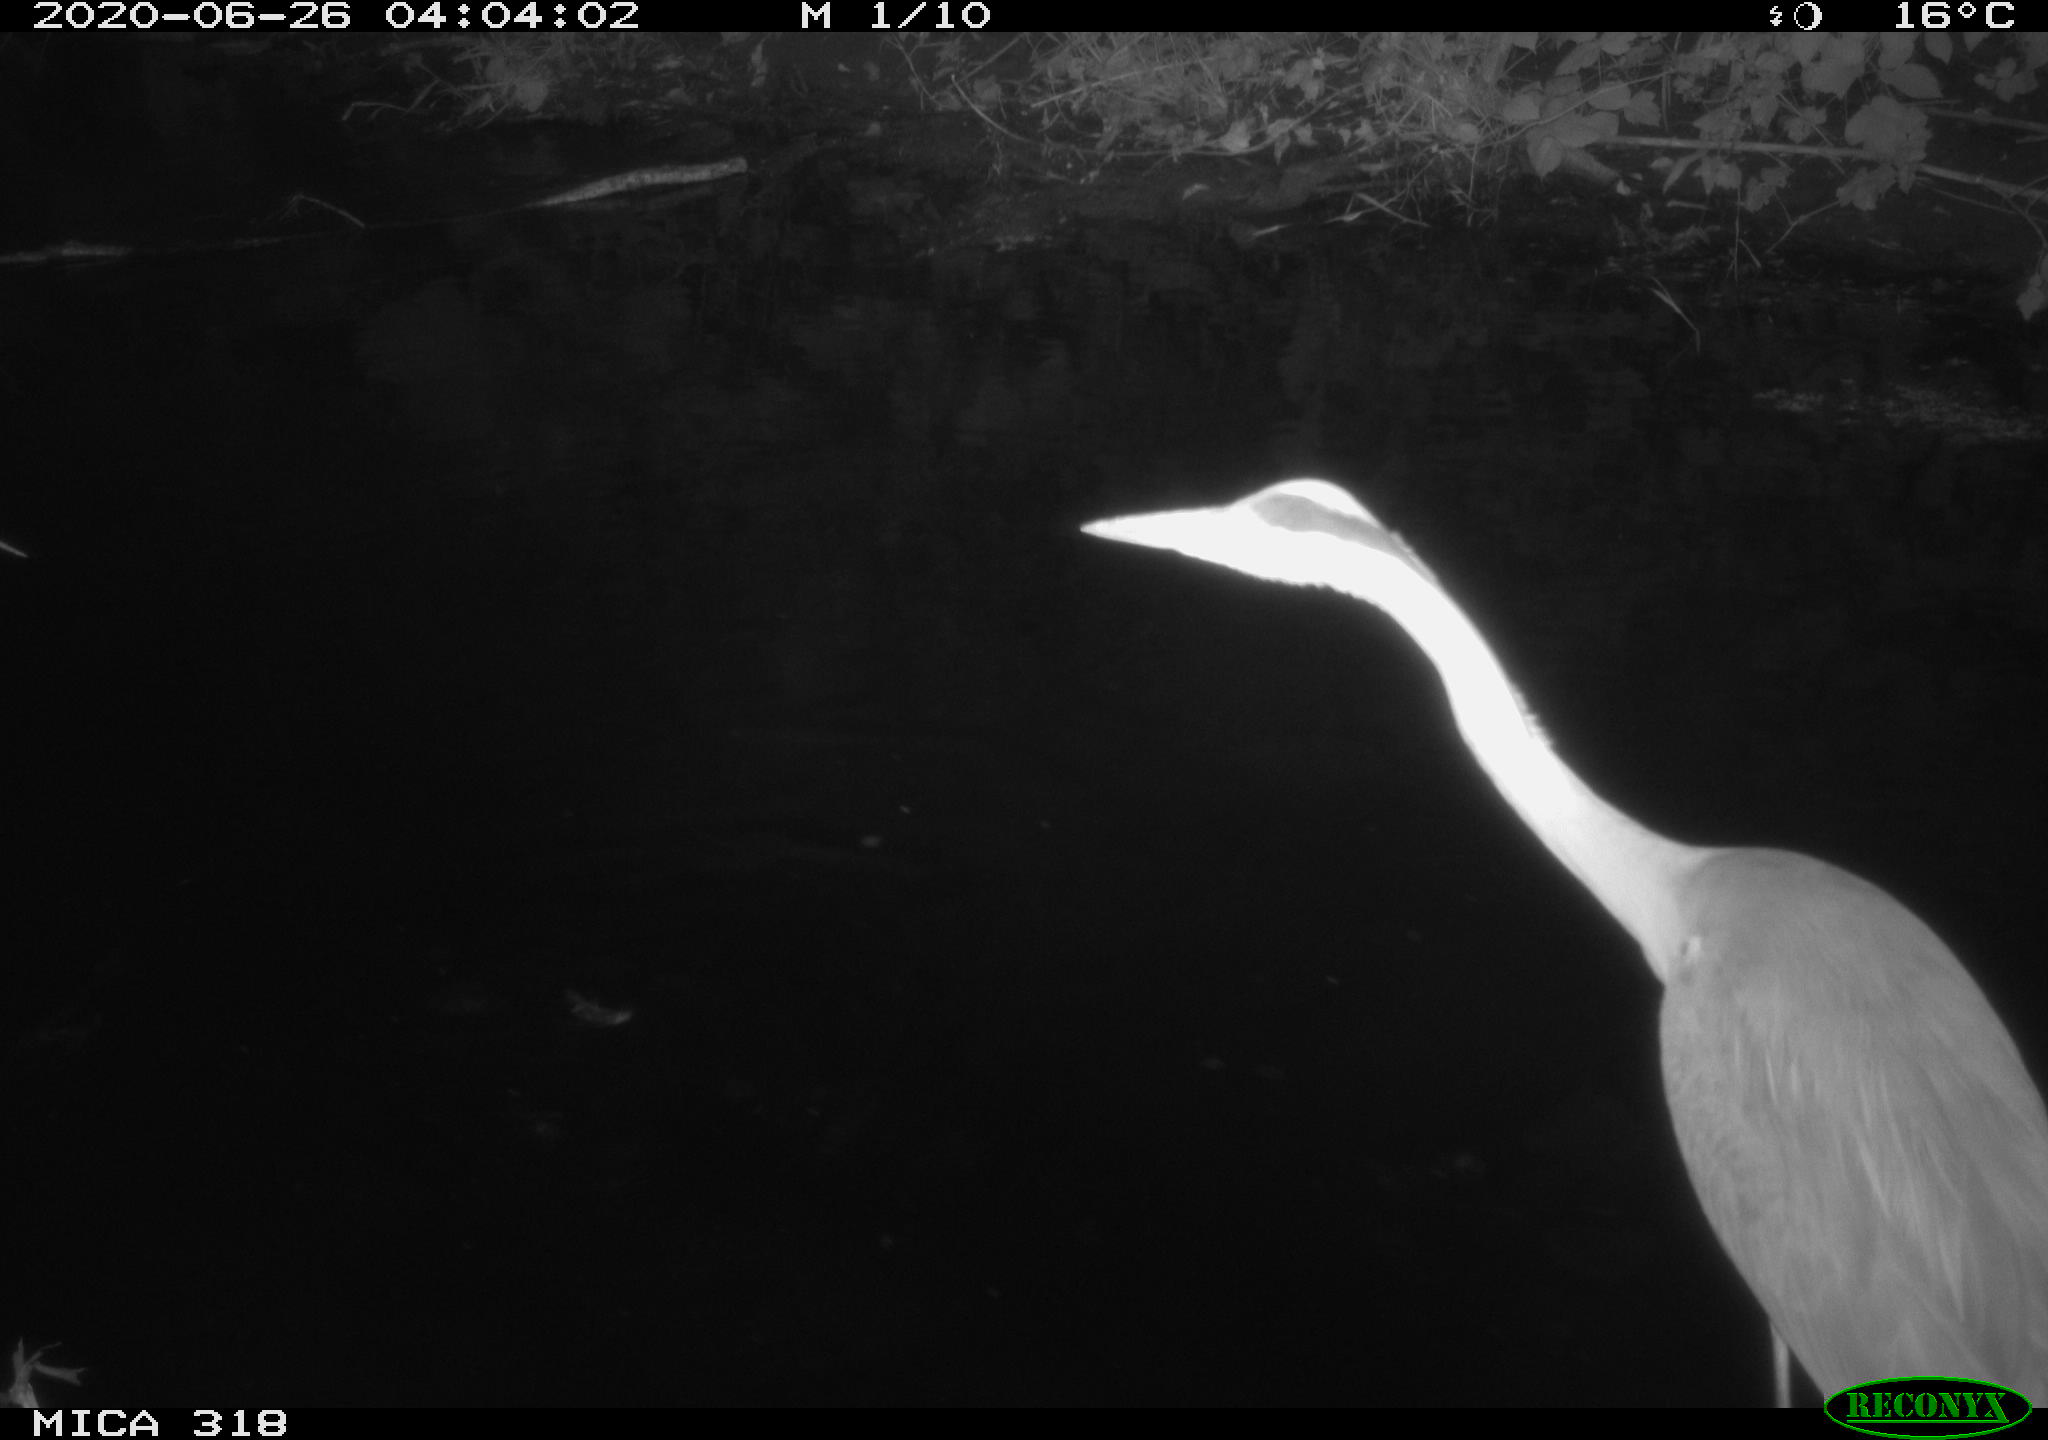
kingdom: Animalia
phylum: Chordata
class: Aves
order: Pelecaniformes
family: Ardeidae
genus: Ardea
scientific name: Ardea cinerea
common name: Grey heron
